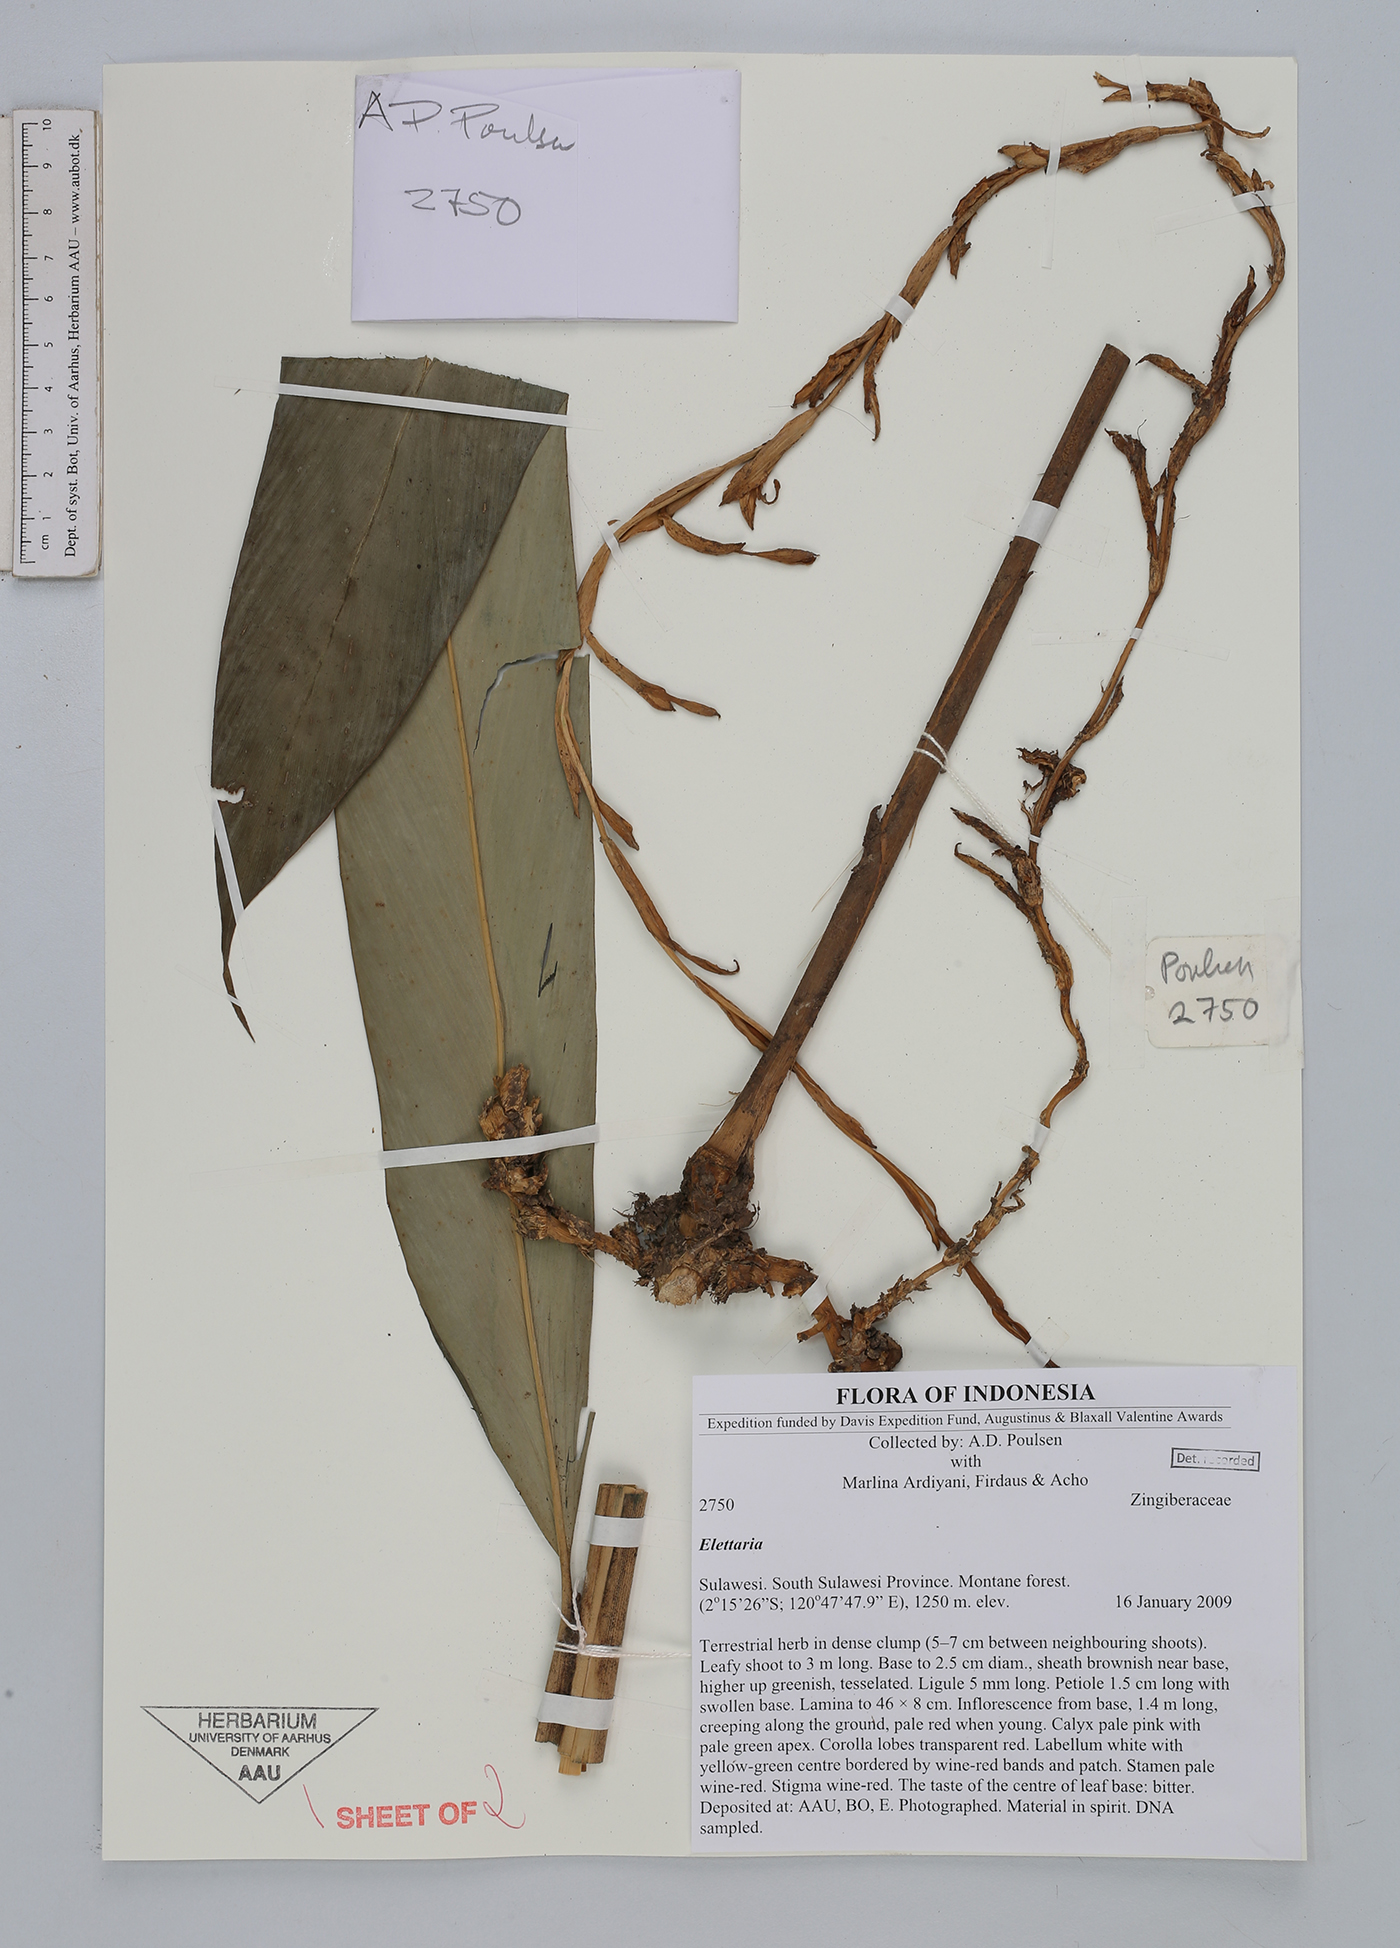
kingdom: Plantae
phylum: Tracheophyta
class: Liliopsida
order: Zingiberales
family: Zingiberaceae
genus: Sulettaria
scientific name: Sulettaria
